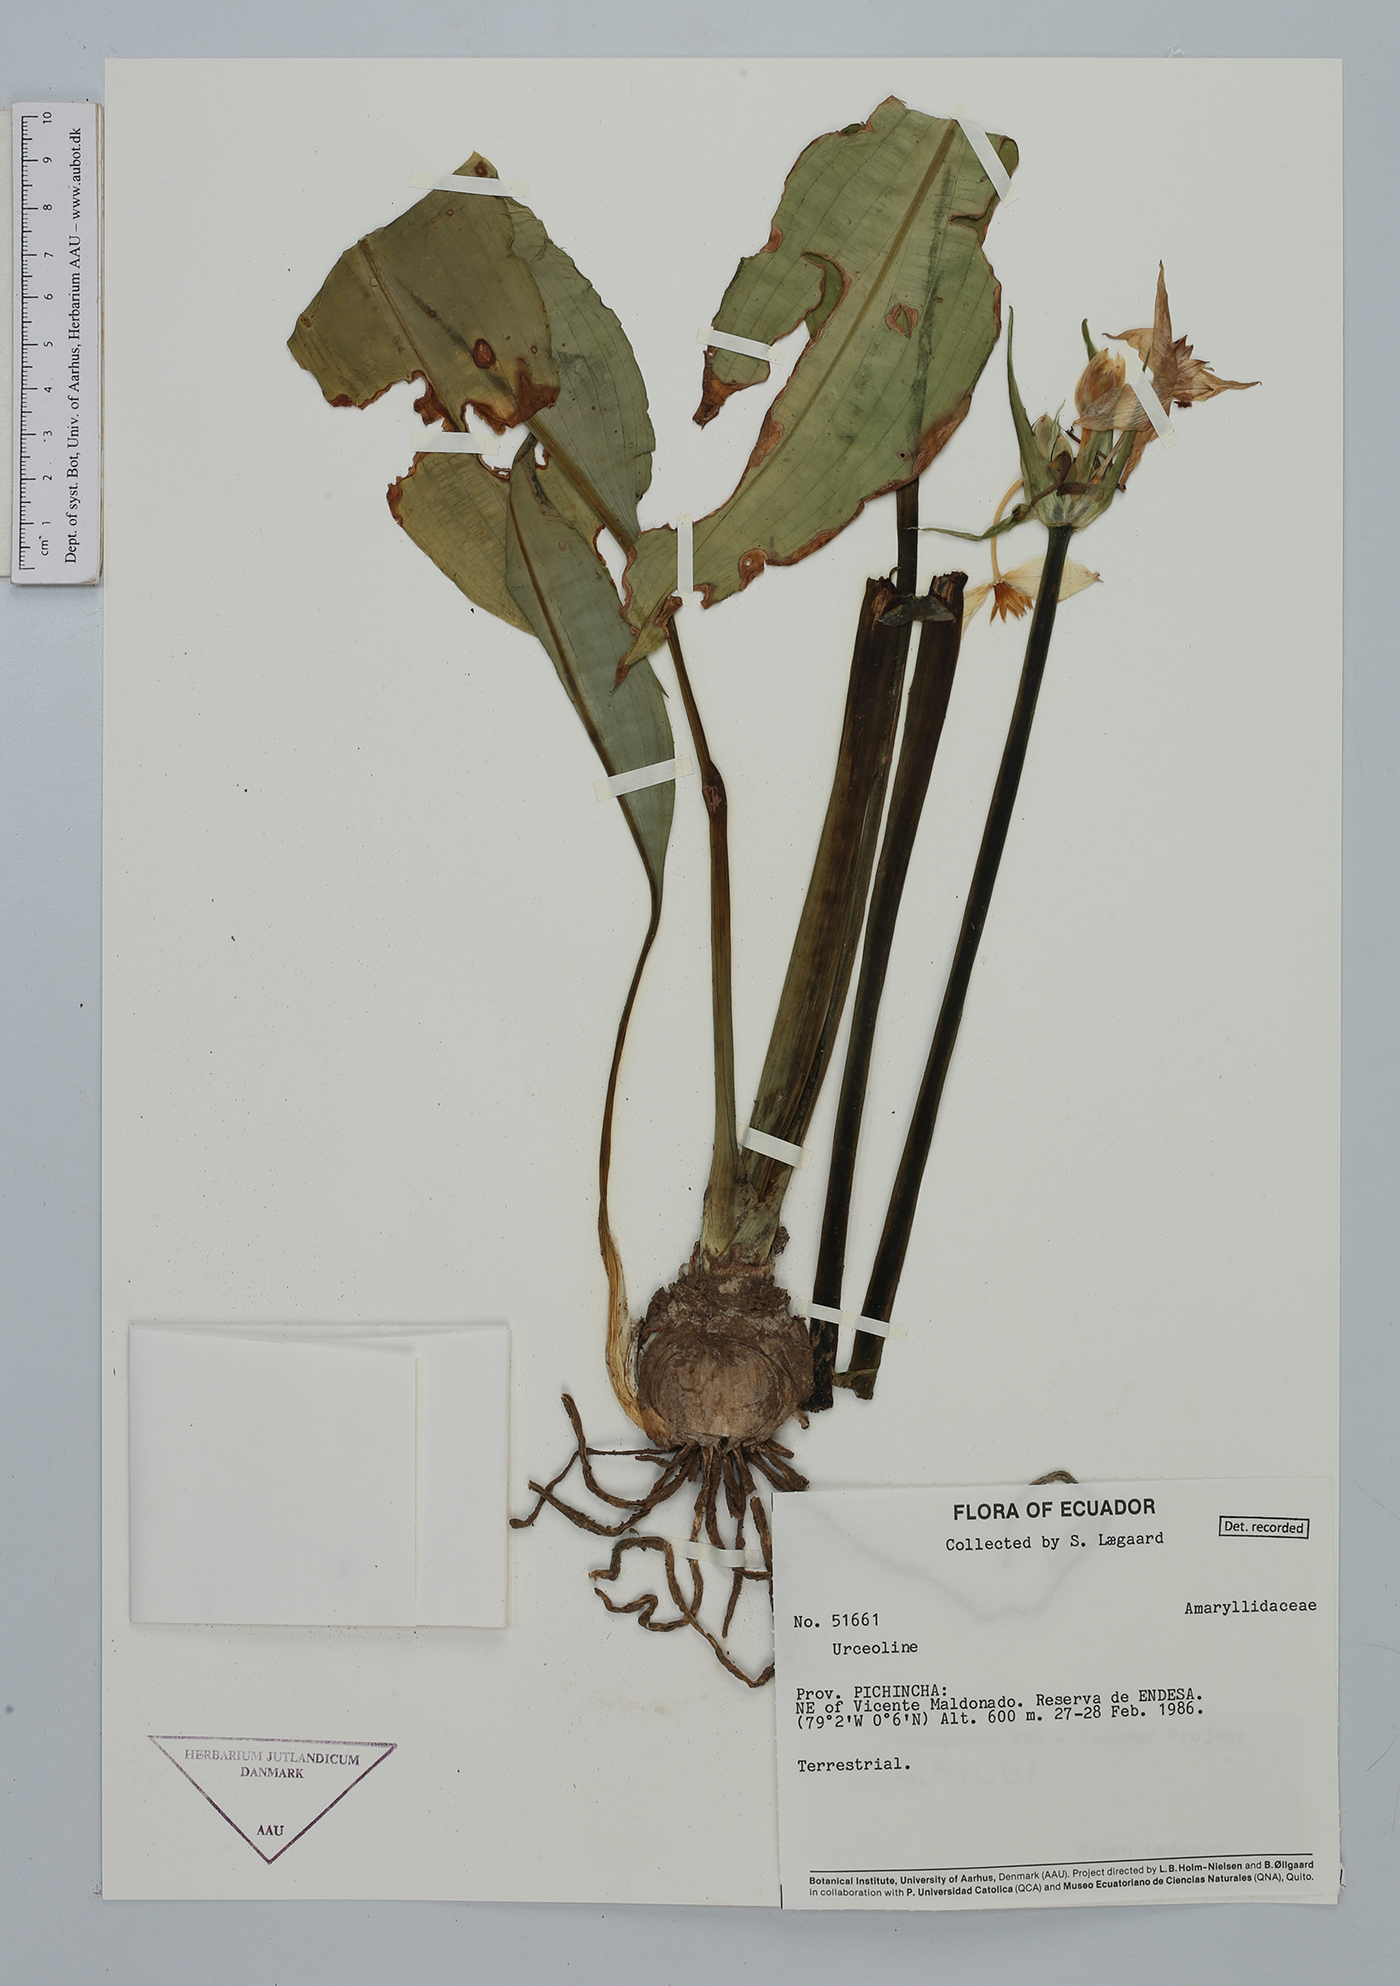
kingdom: Plantae
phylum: Tracheophyta
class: Liliopsida
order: Asparagales
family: Amaryllidaceae
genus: Urceolina
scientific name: Urceolina
